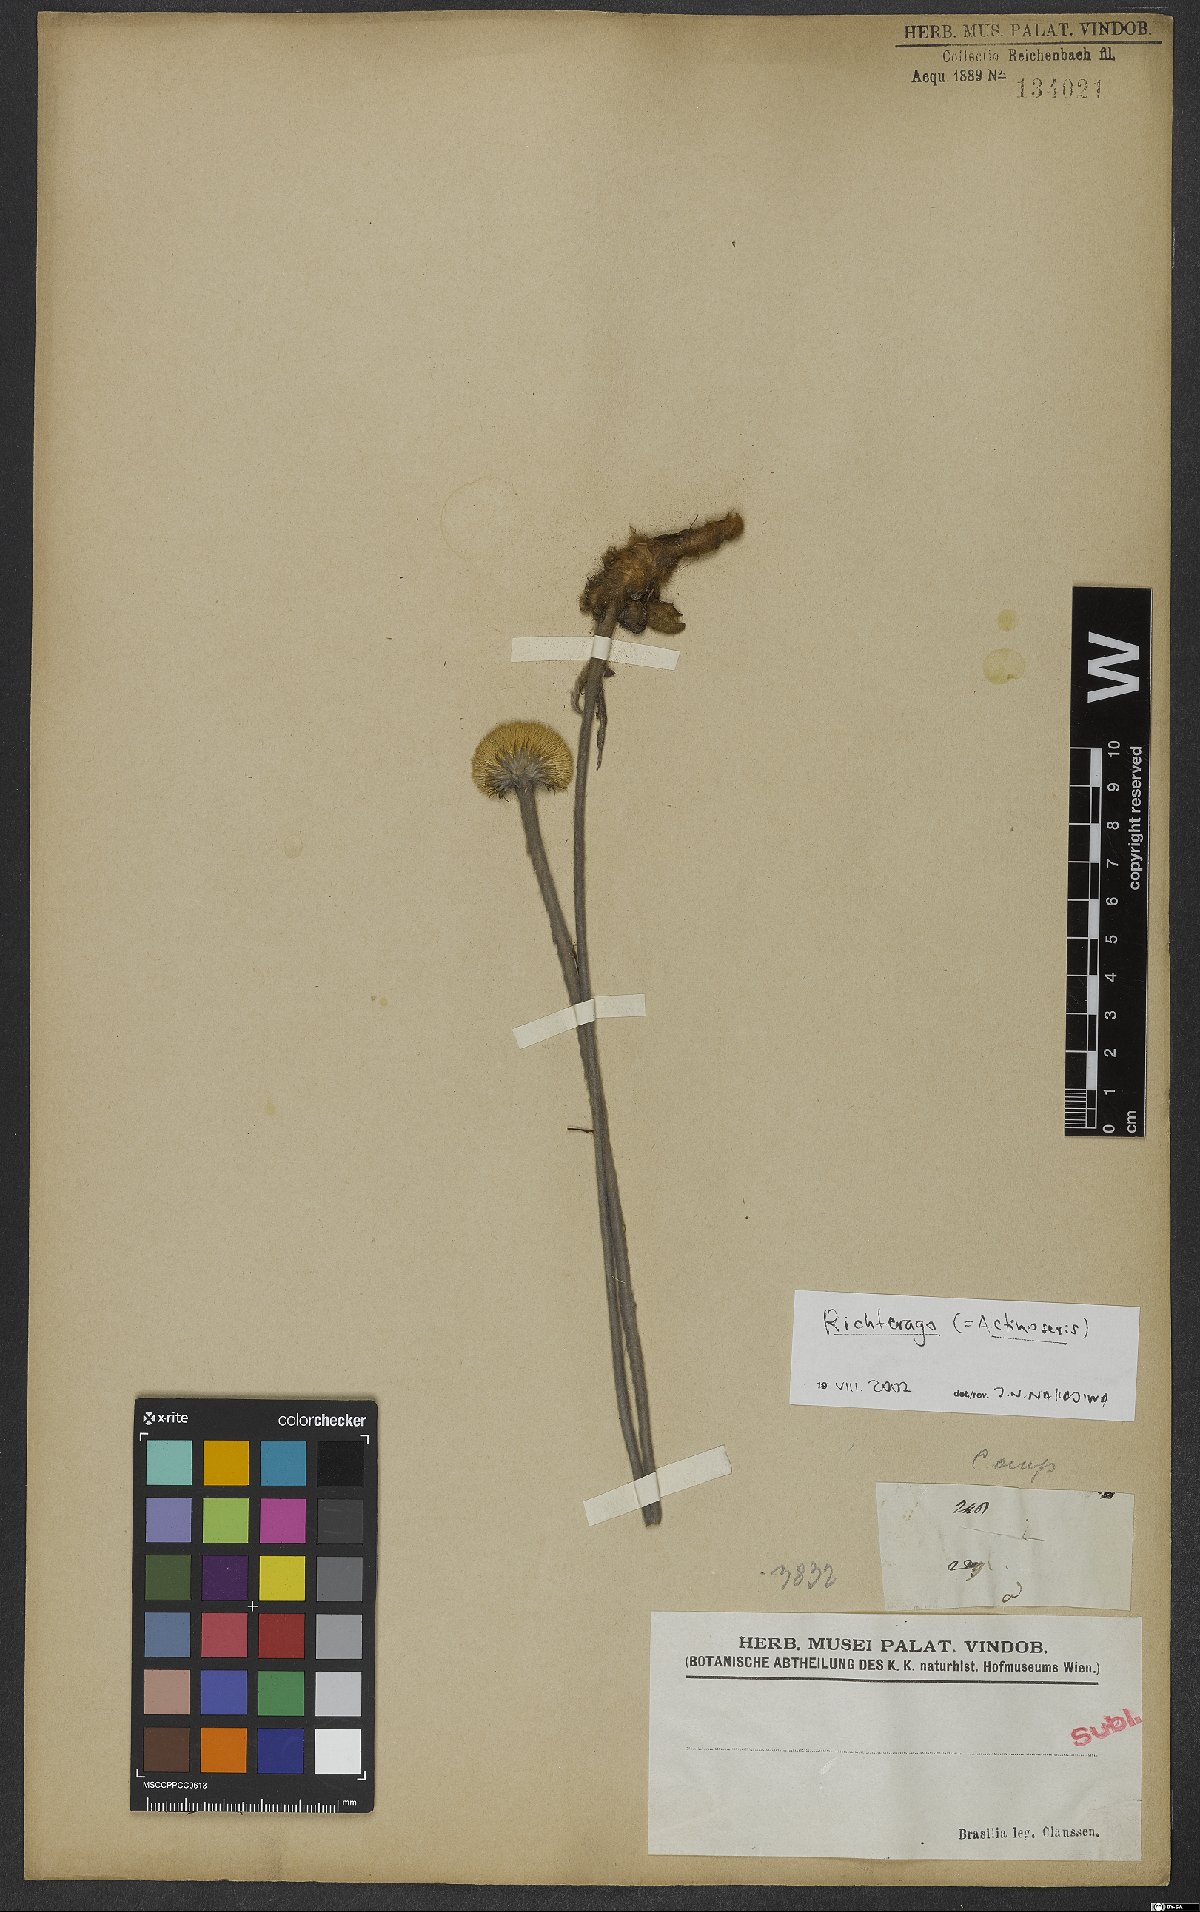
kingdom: Animalia
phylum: Cnidaria
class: Anthozoa
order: Scleractinia
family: Asteroseriidae
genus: Actinoseris
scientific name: Actinoseris
